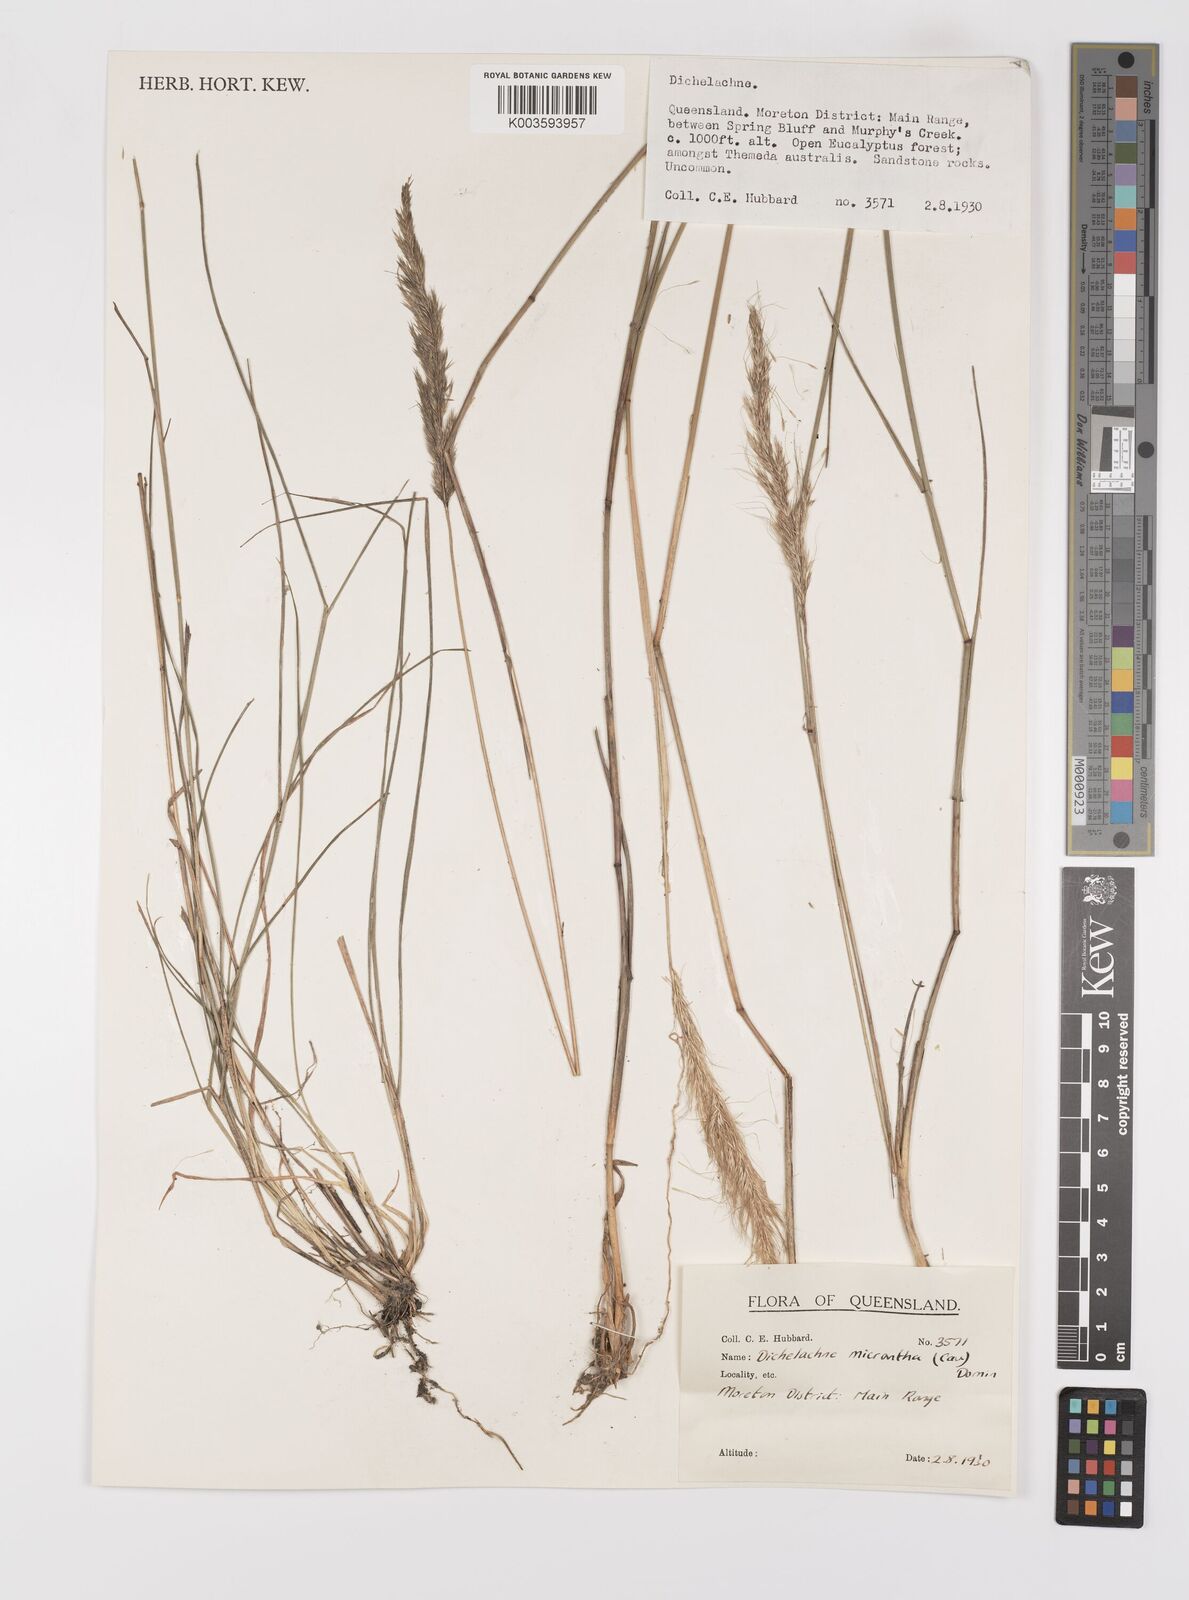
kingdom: Plantae
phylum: Tracheophyta
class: Liliopsida
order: Poales
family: Poaceae
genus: Dichelachne
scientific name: Dichelachne micrantha
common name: Plumegrass
